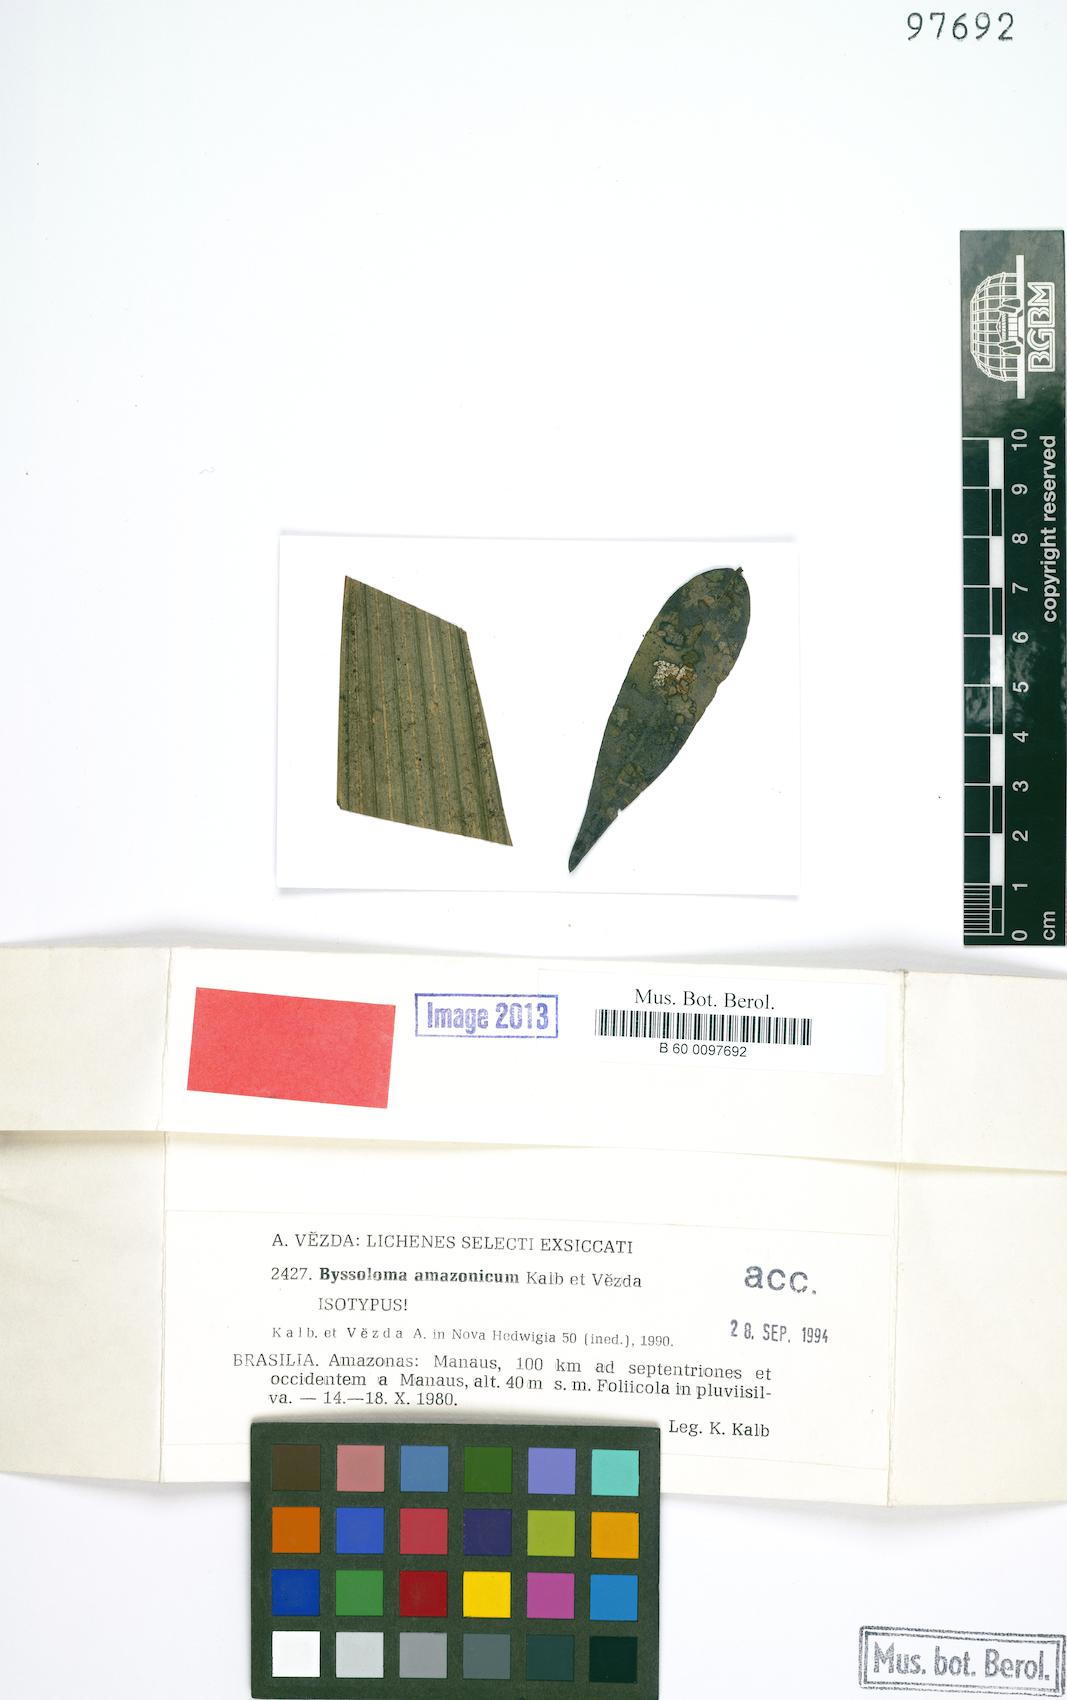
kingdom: Fungi
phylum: Ascomycota
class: Lecanoromycetes
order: Lecanorales
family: Byssolomataceae
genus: Byssoloma
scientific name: Byssoloma amazonicum
